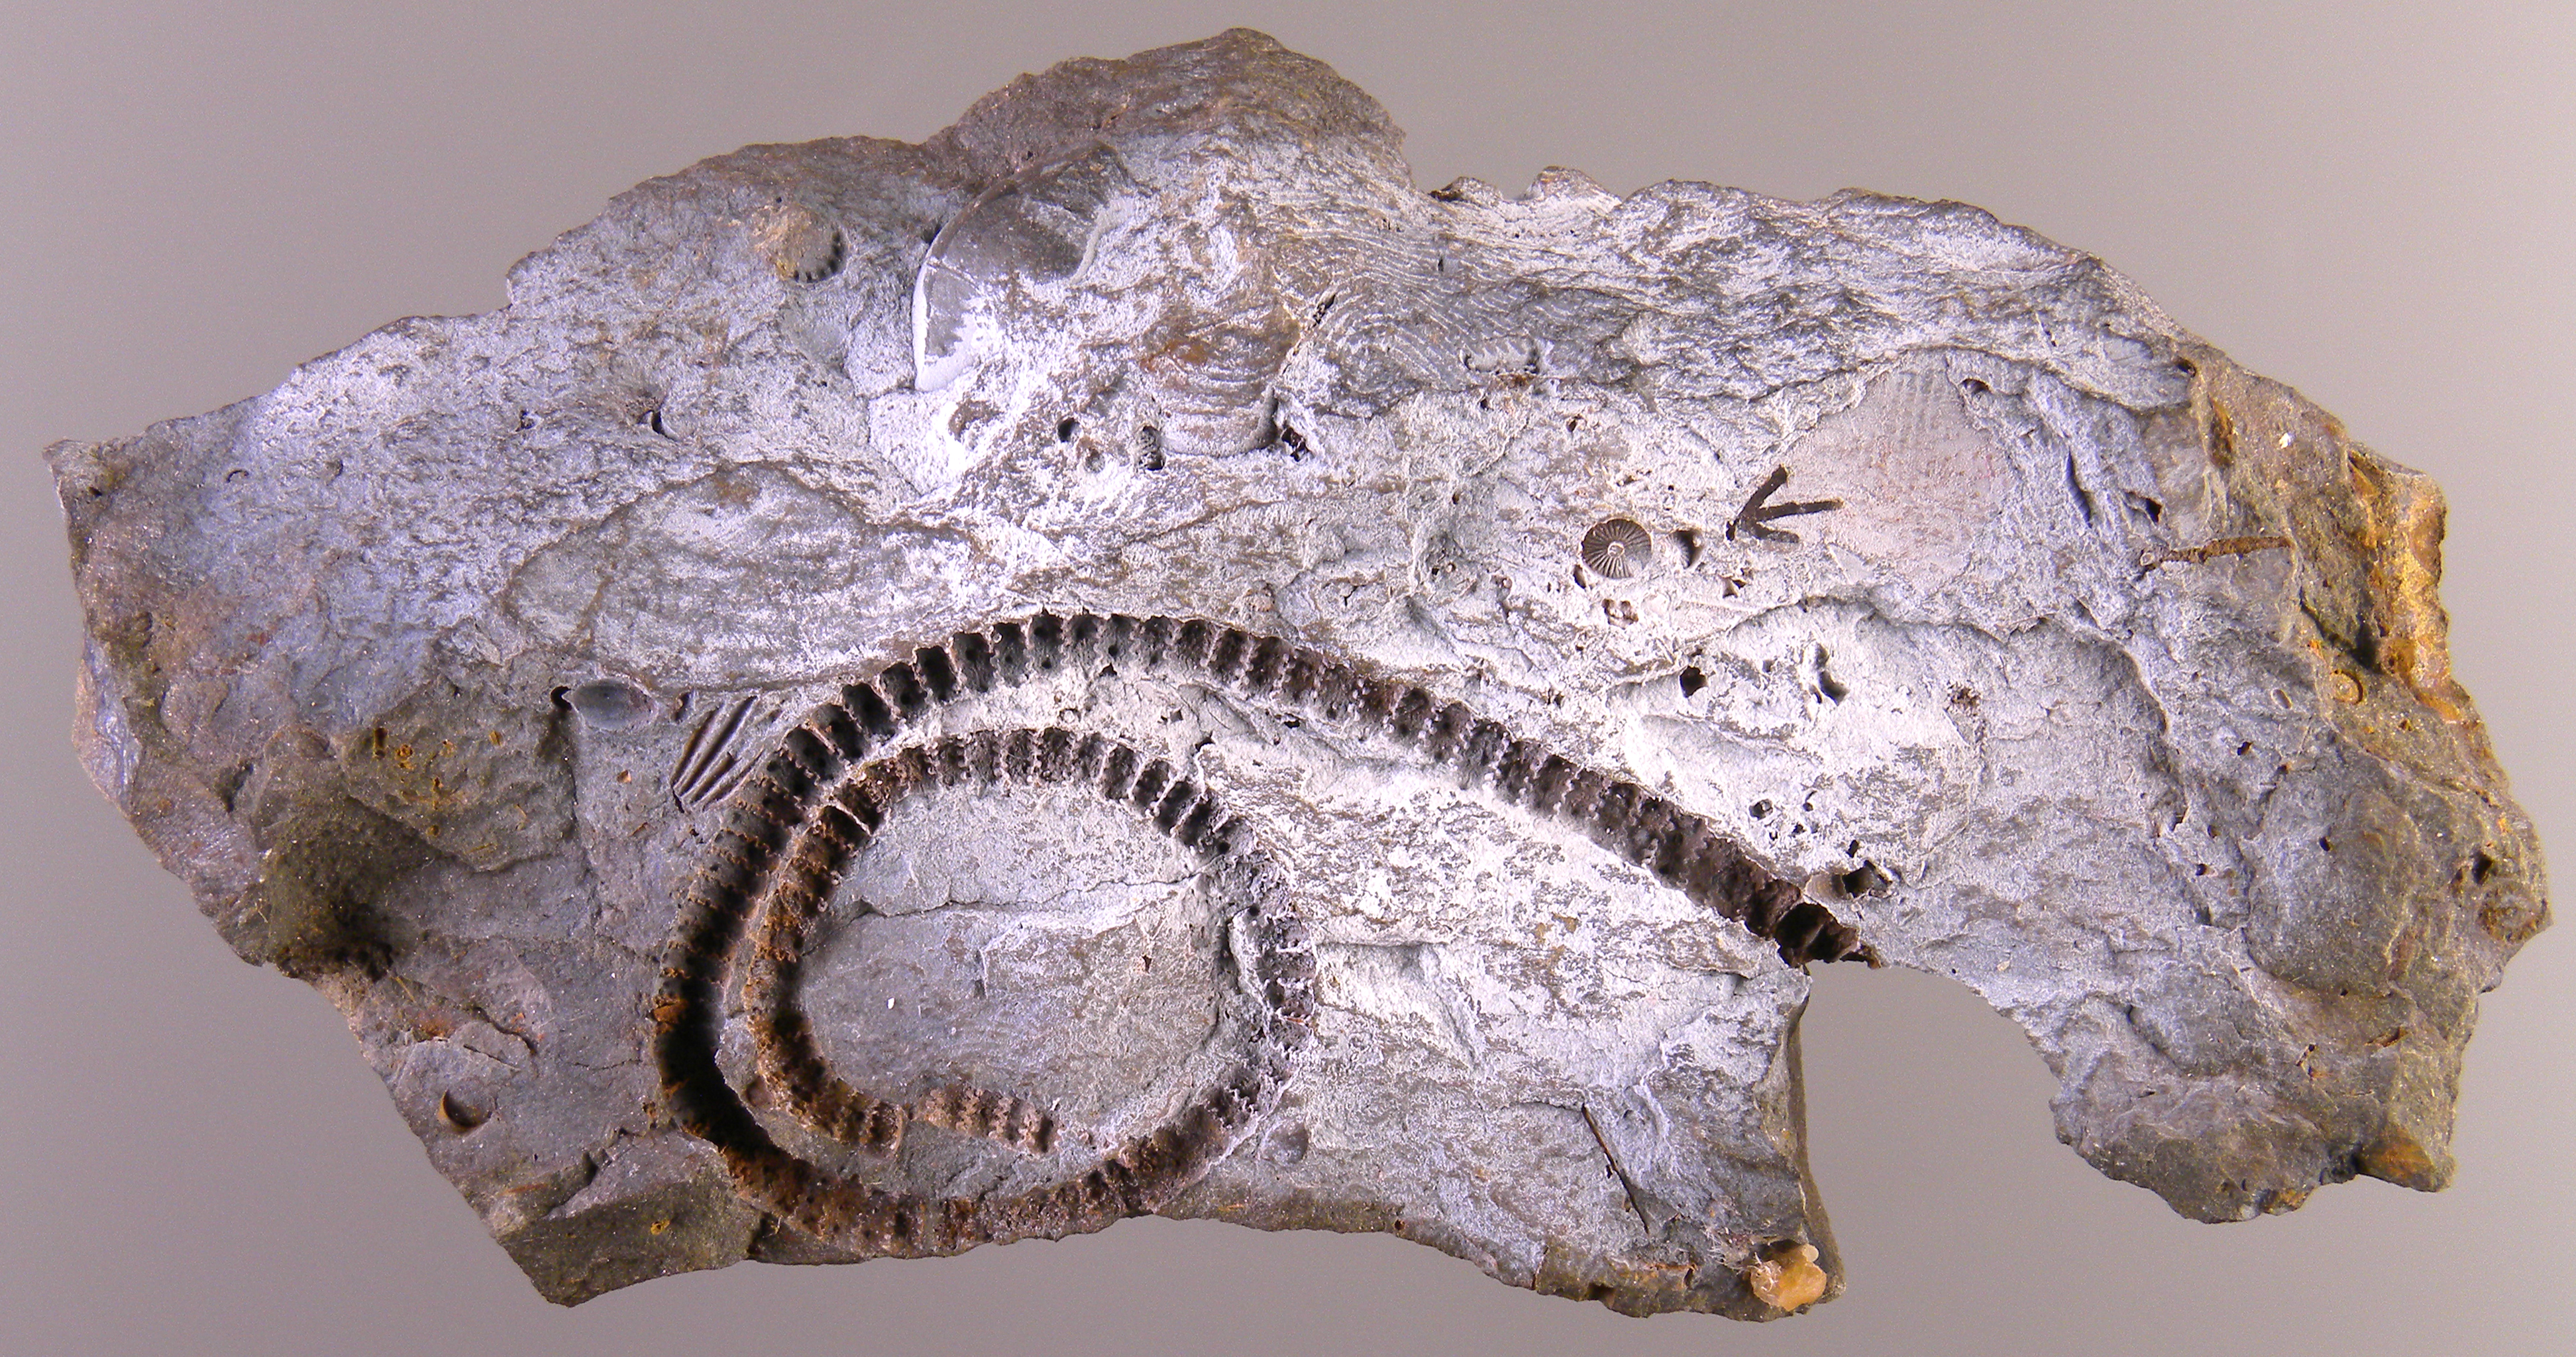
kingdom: Animalia
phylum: Echinodermata
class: Crinoidea
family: Stenocrinidae
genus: Calleocrinus
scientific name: Calleocrinus
